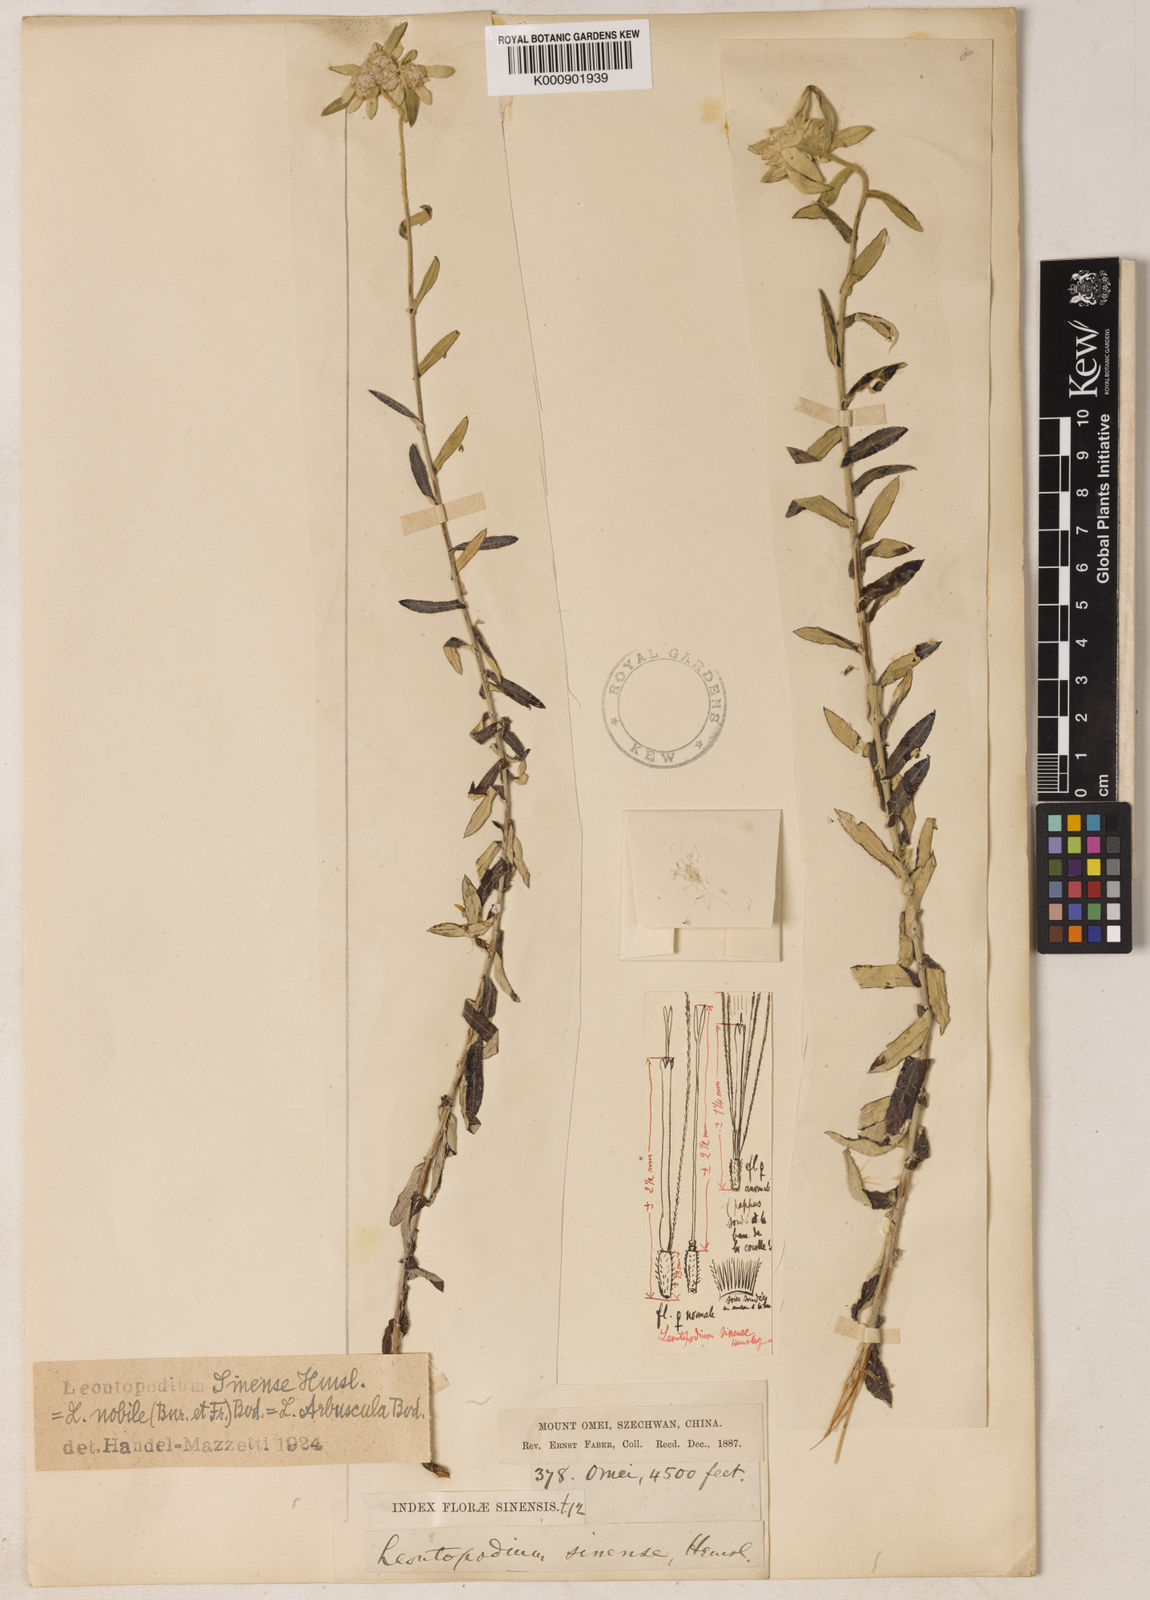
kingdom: Plantae
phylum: Tracheophyta
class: Magnoliopsida
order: Asterales
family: Asteraceae
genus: Leontopodium
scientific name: Leontopodium sinense
